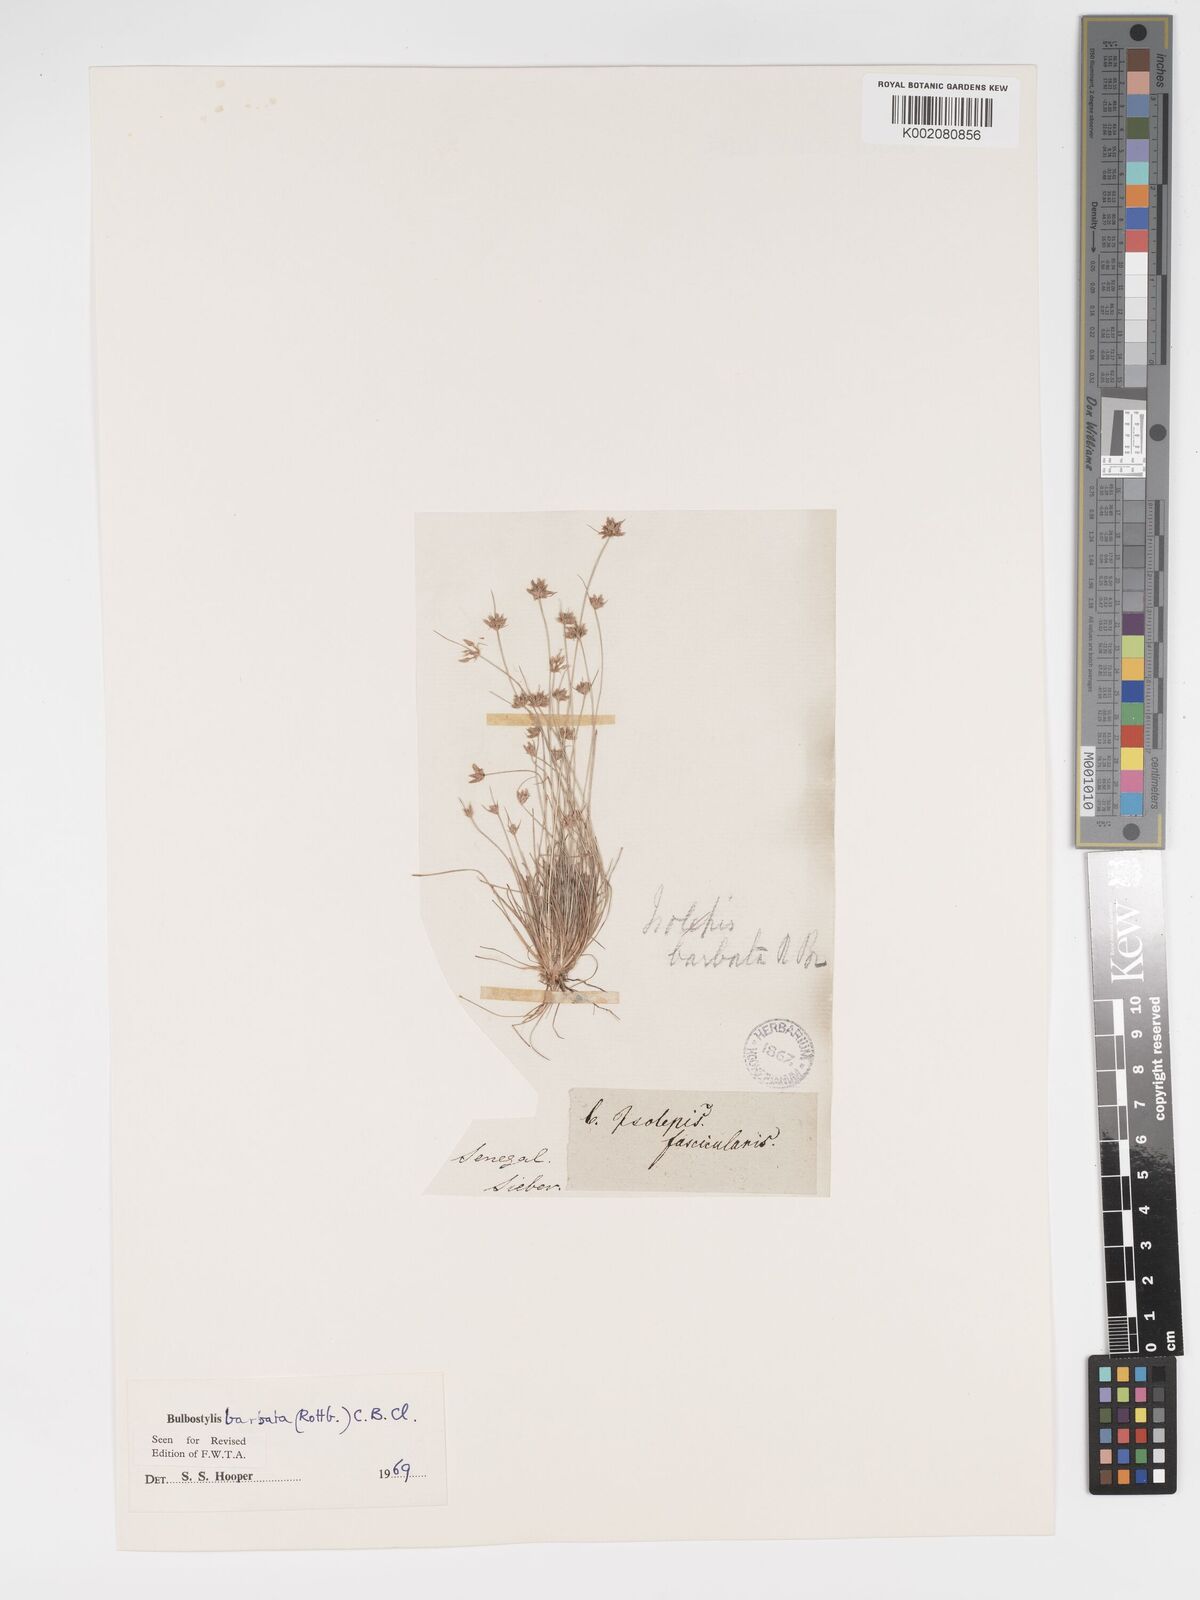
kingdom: Plantae
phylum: Tracheophyta
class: Liliopsida
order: Poales
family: Cyperaceae
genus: Bulbostylis
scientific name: Bulbostylis barbata
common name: Watergrass
